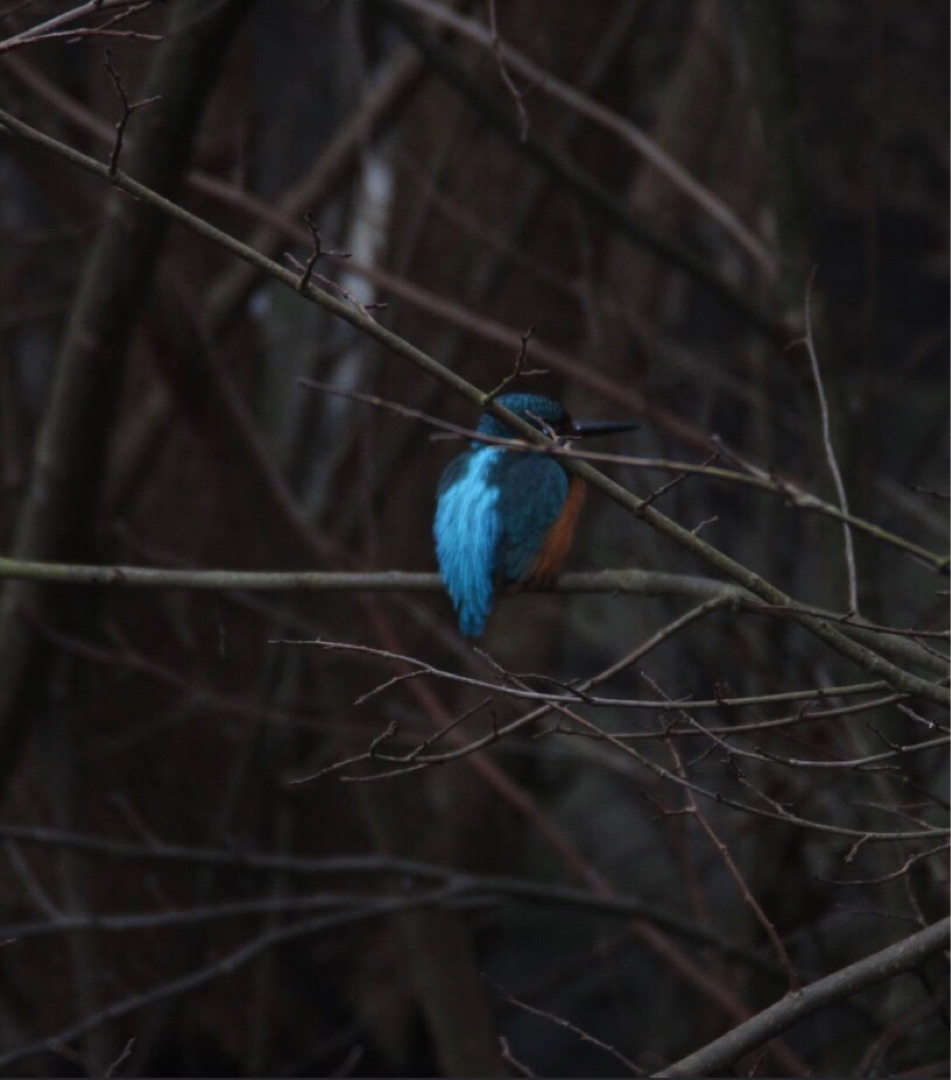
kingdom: Animalia
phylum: Chordata
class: Aves
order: Coraciiformes
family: Alcedinidae
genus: Alcedo
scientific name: Alcedo atthis
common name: Isfugl
